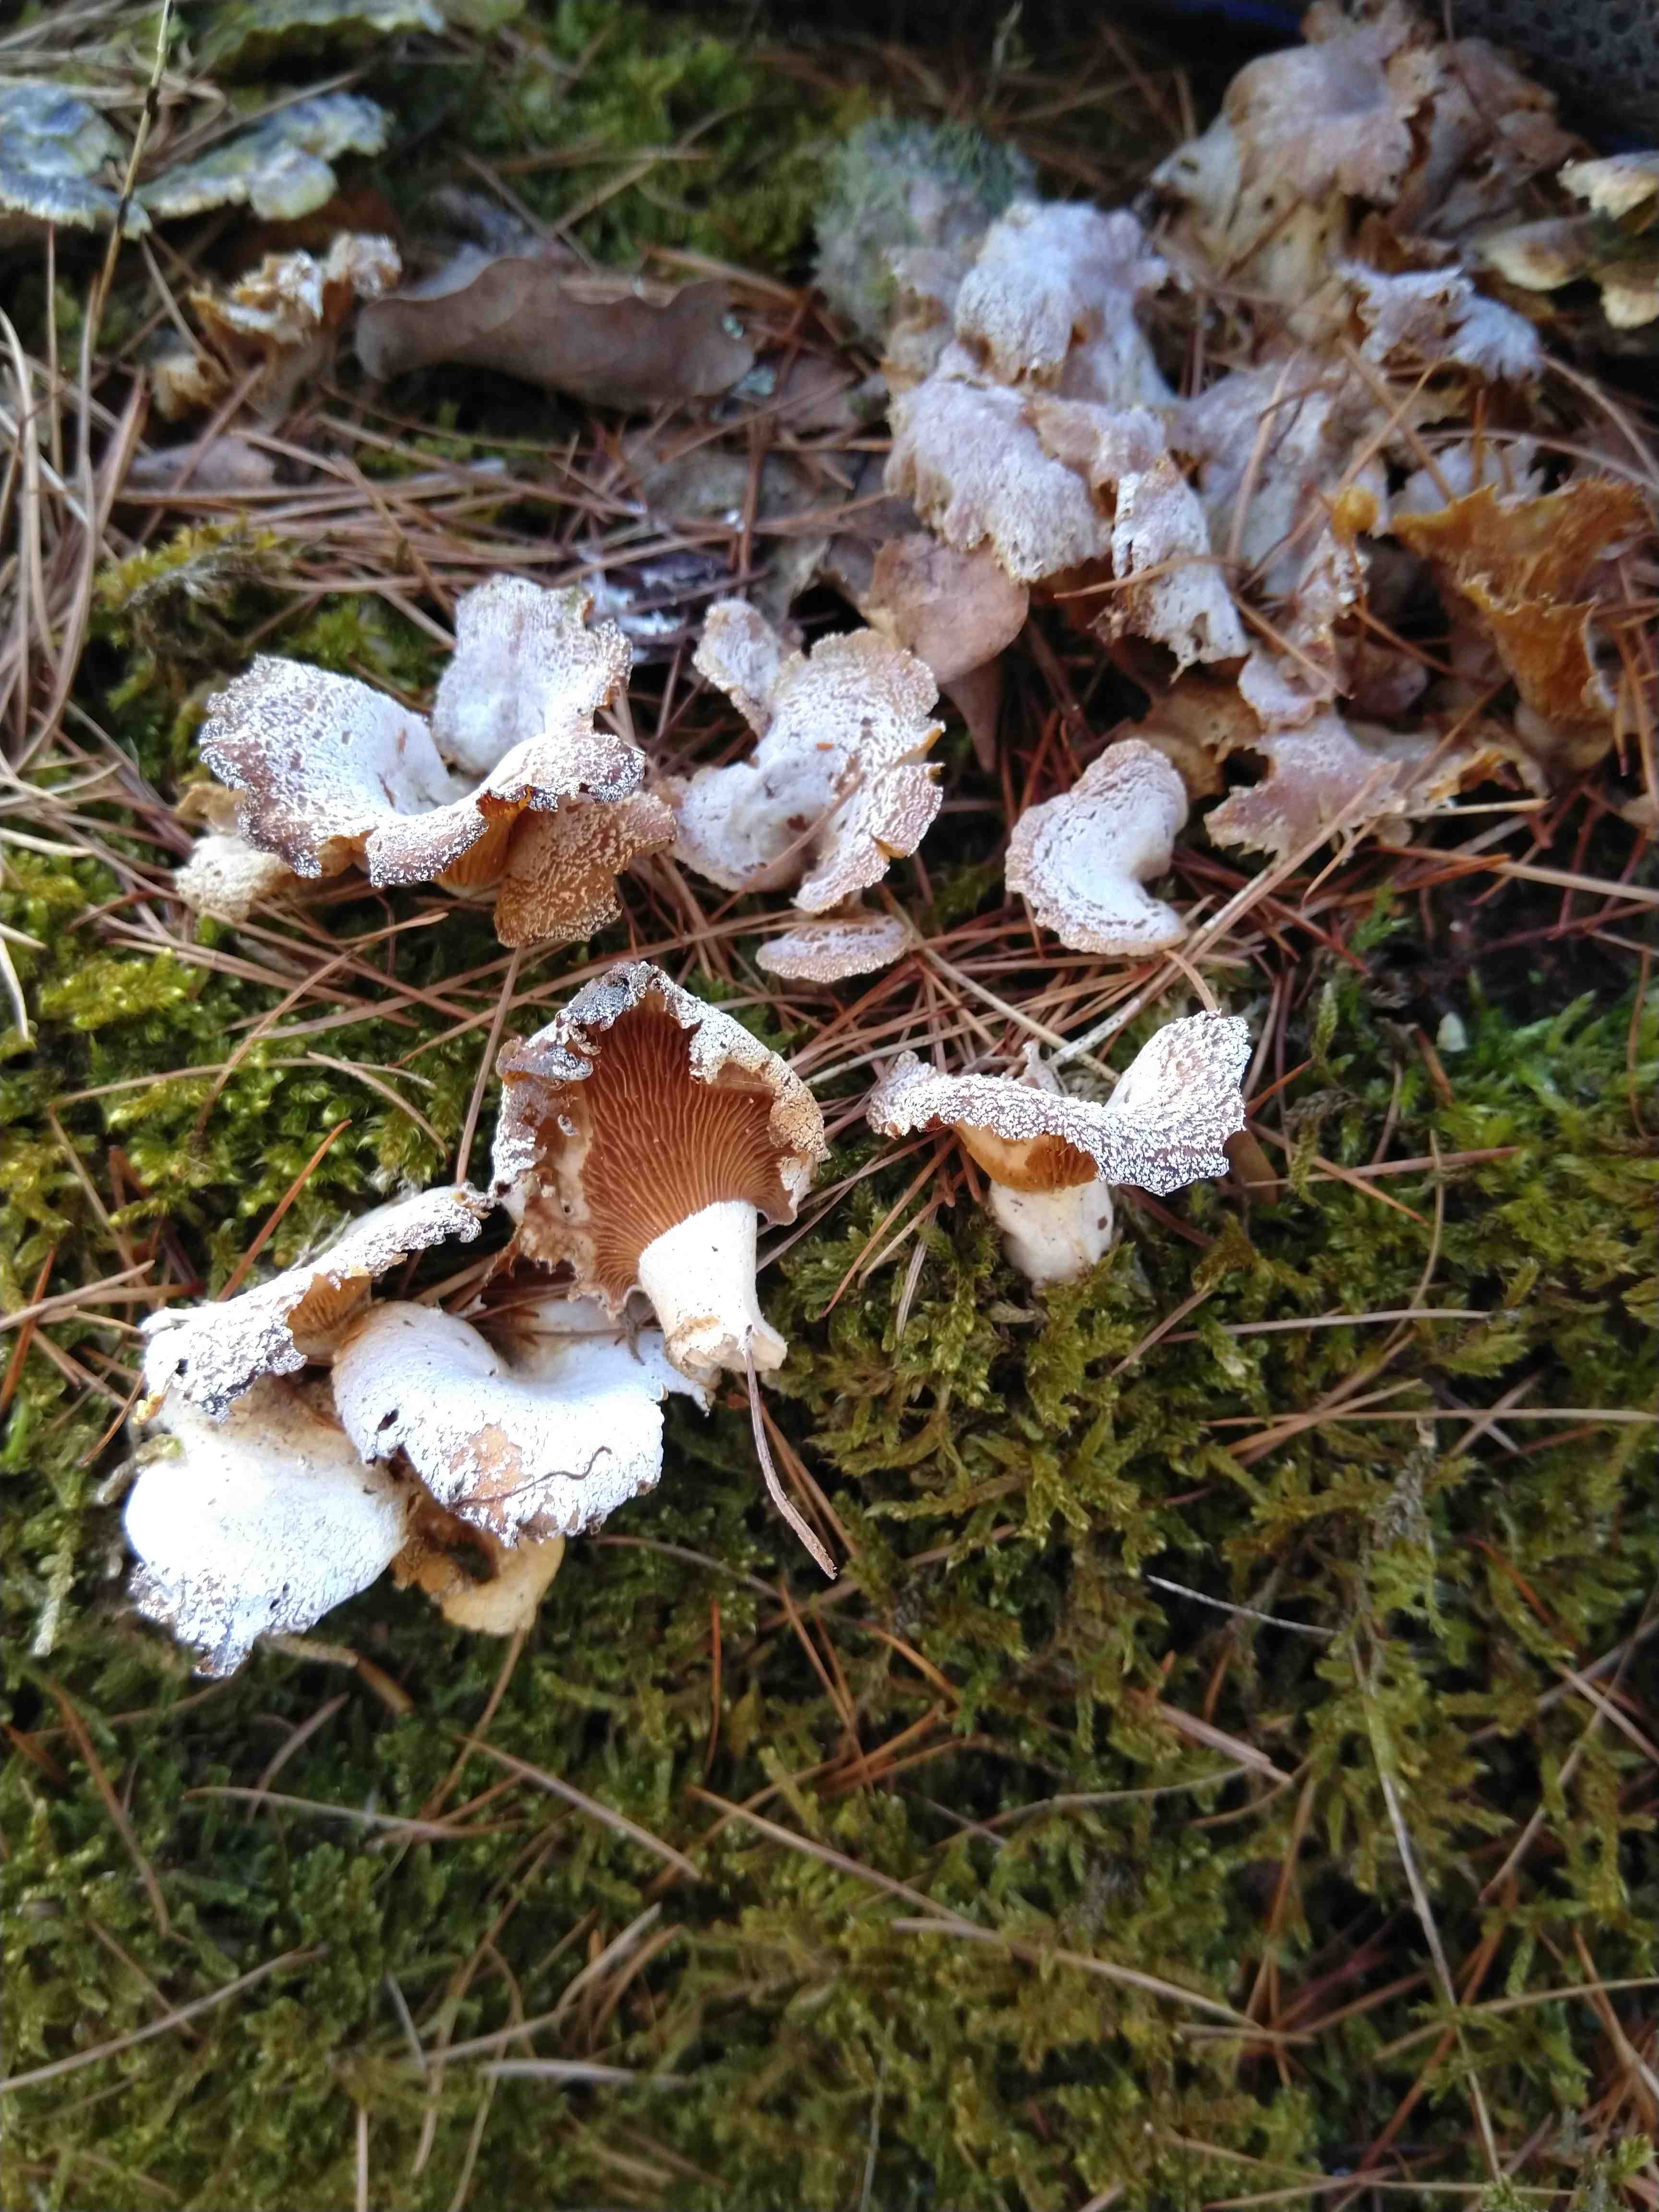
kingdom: Fungi
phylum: Basidiomycota
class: Agaricomycetes
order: Agaricales
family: Mycenaceae
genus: Panellus
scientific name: Panellus stipticus
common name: kliddet epaulethat
